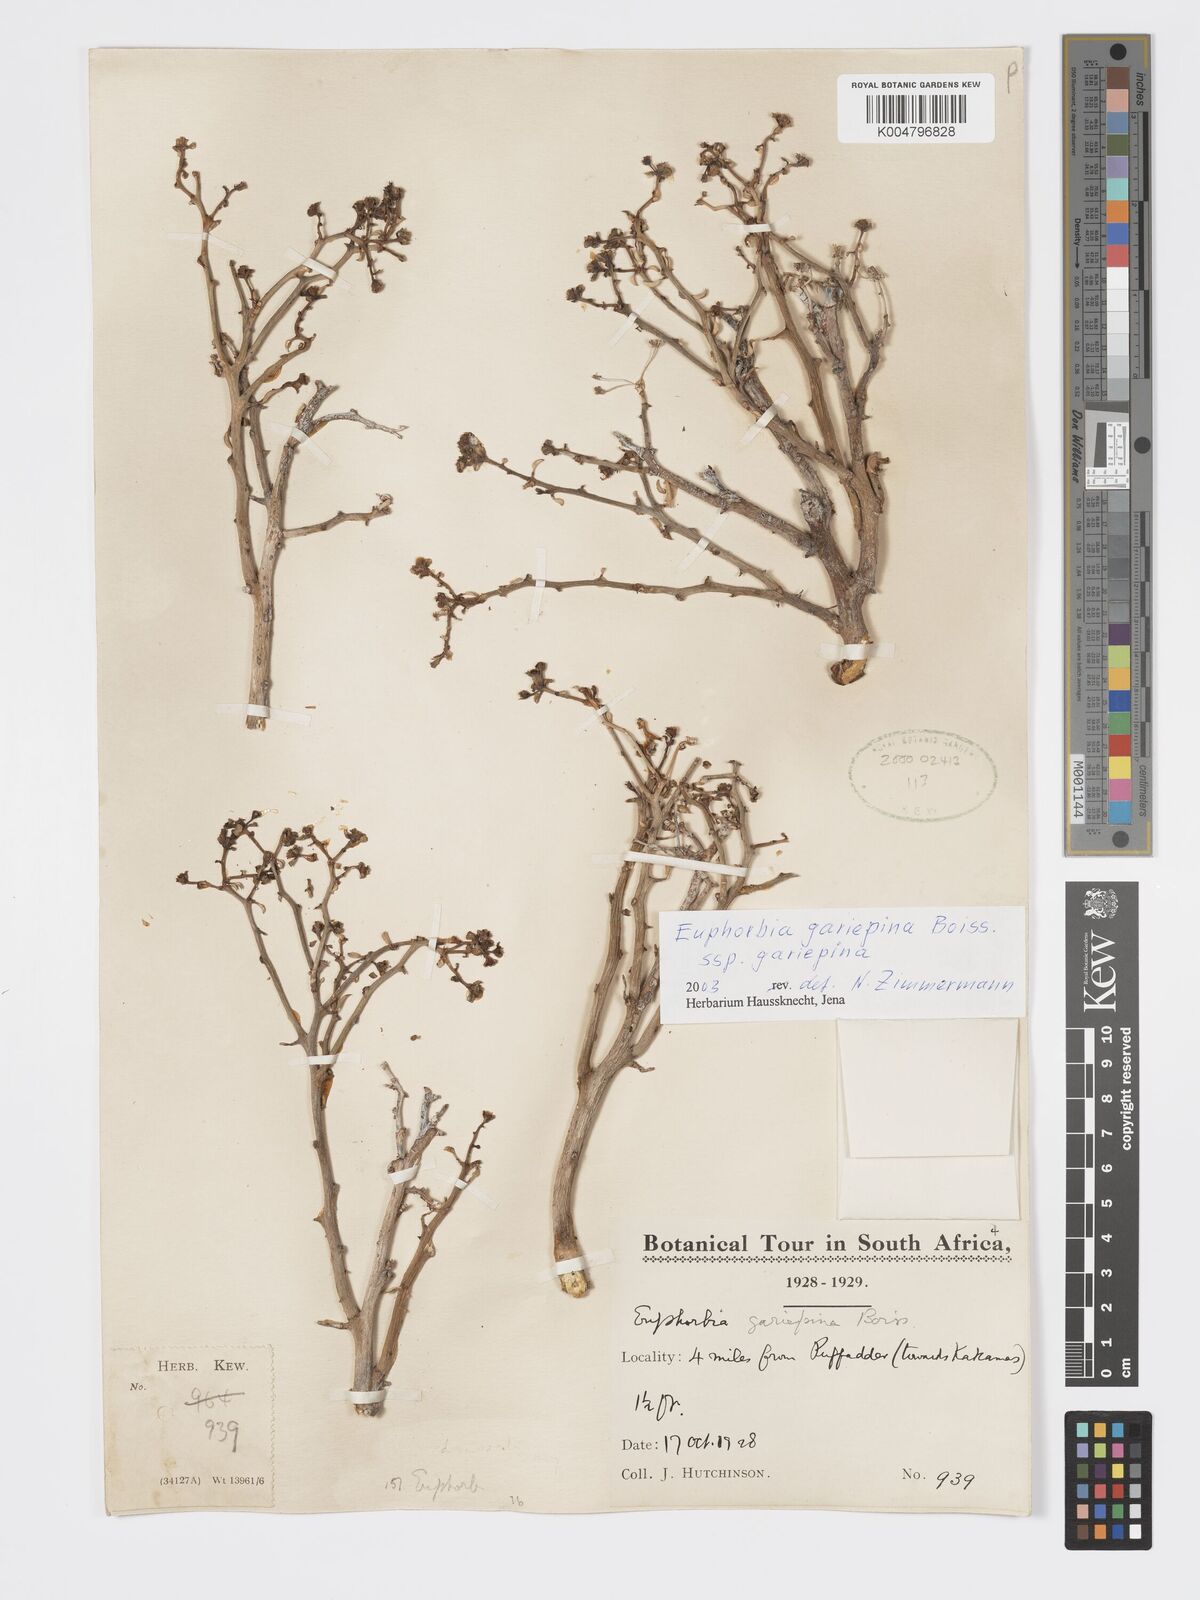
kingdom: Plantae
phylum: Tracheophyta
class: Magnoliopsida
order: Malpighiales
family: Euphorbiaceae
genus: Euphorbia
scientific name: Euphorbia gariepina
